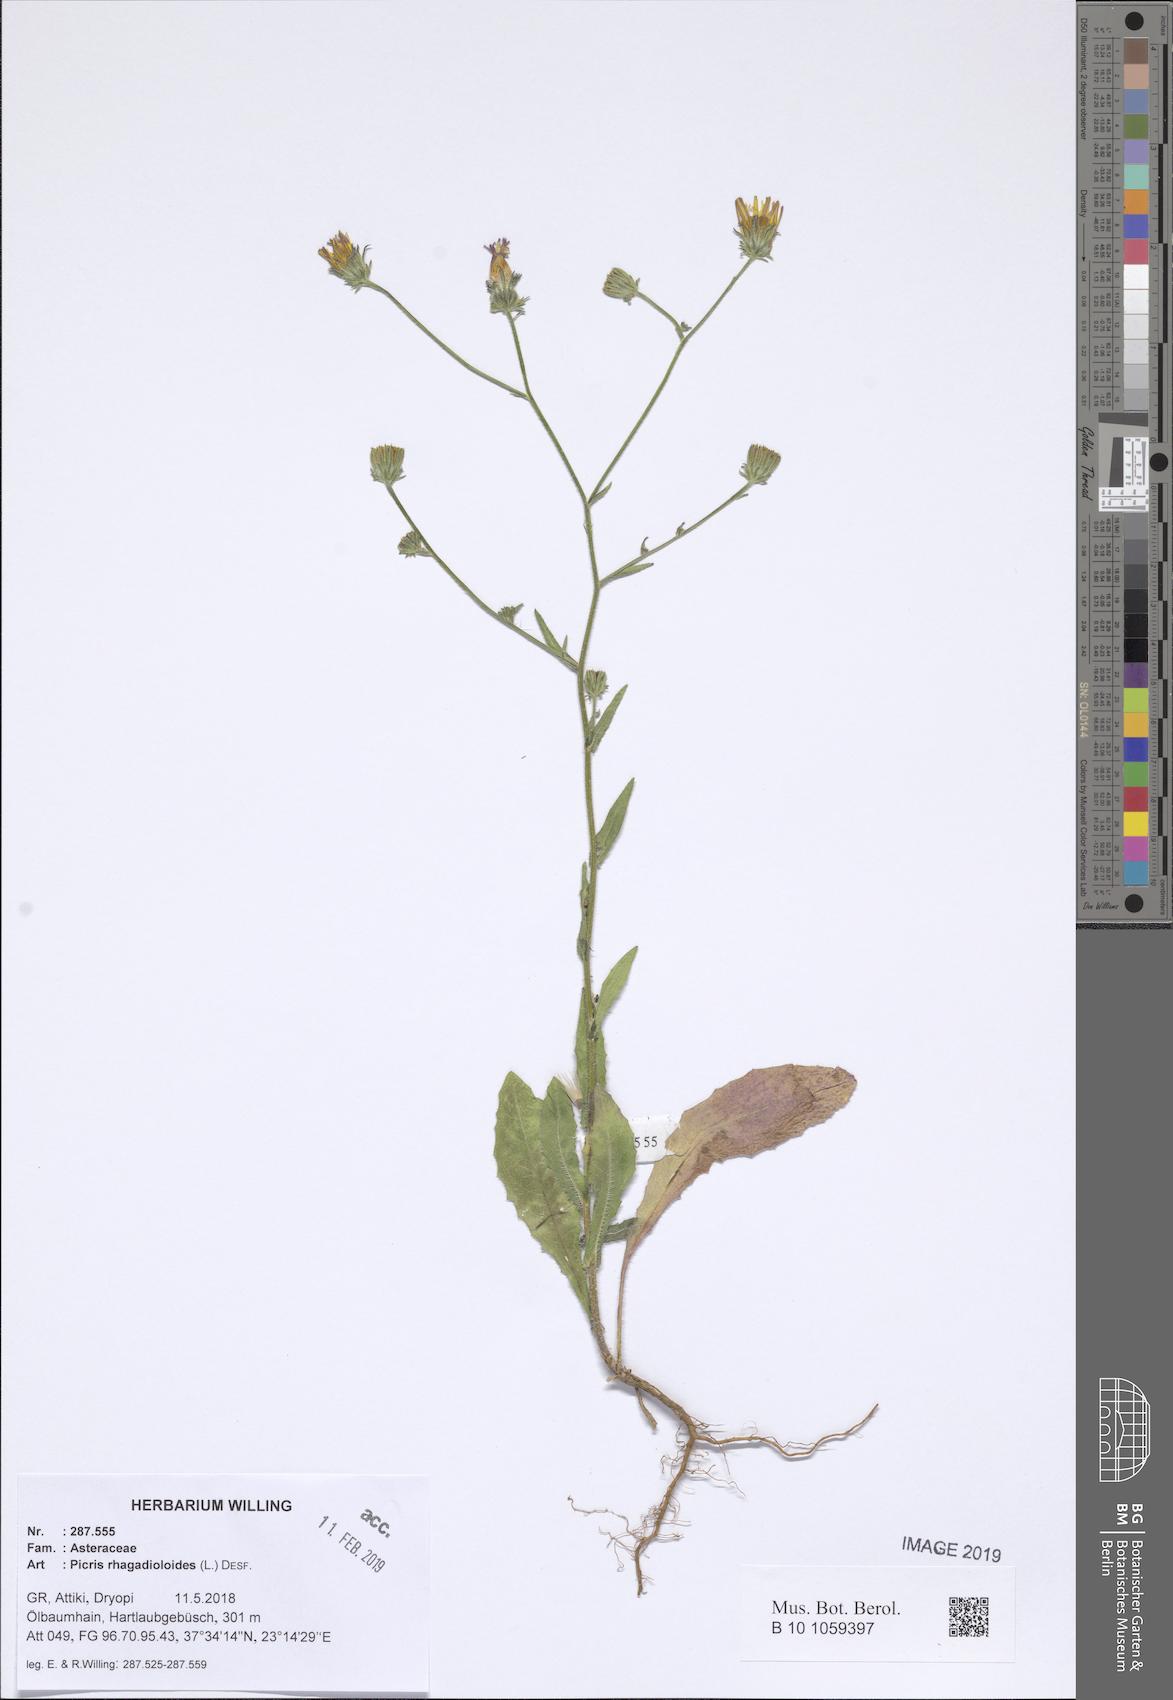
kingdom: Plantae
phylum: Tracheophyta
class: Magnoliopsida
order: Asterales
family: Asteraceae
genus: Picris
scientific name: Picris rhagadioloides
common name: Oxtongue
